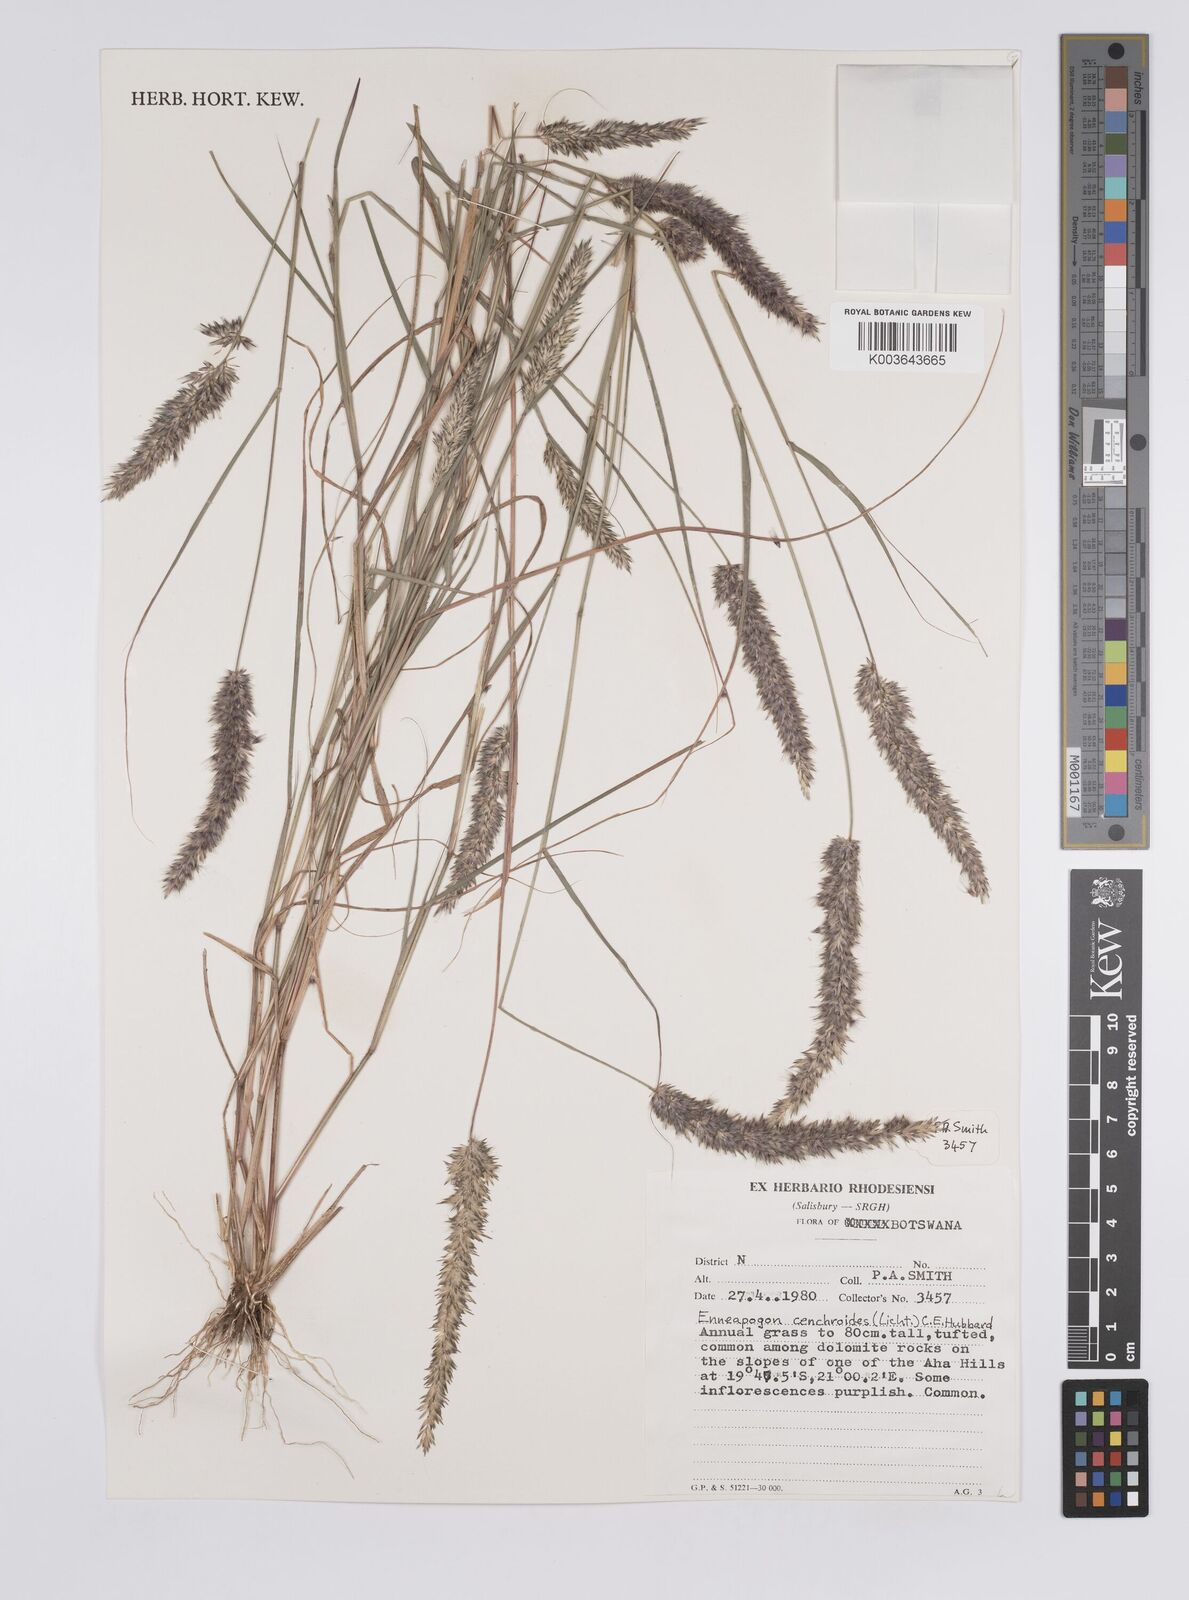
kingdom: Plantae
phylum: Tracheophyta
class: Liliopsida
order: Poales
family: Poaceae
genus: Enneapogon
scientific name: Enneapogon cenchroides
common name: Soft feather pappusgrass
